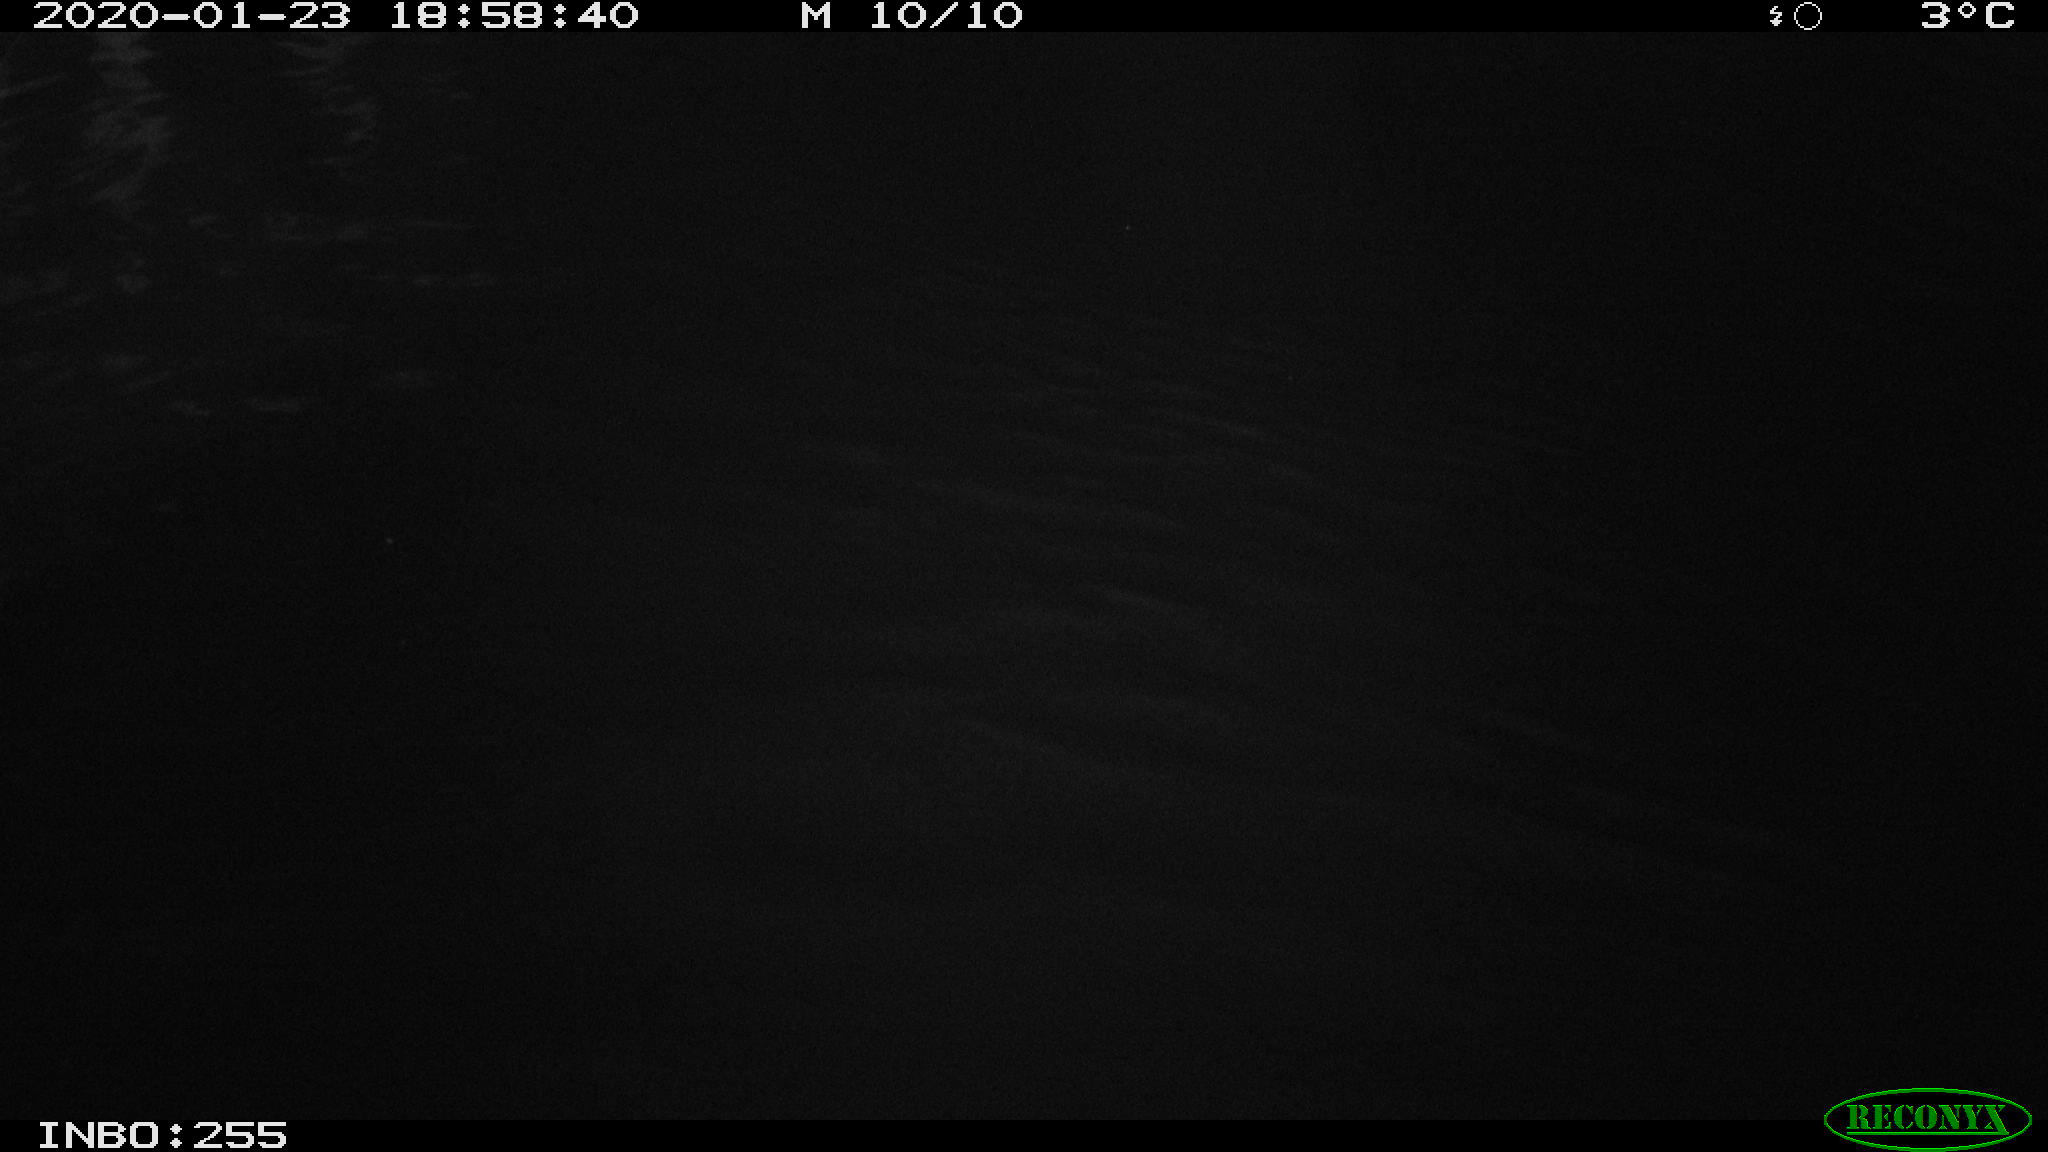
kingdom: Animalia
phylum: Chordata
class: Mammalia
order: Rodentia
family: Cricetidae
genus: Ondatra
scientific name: Ondatra zibethicus
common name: Muskrat
